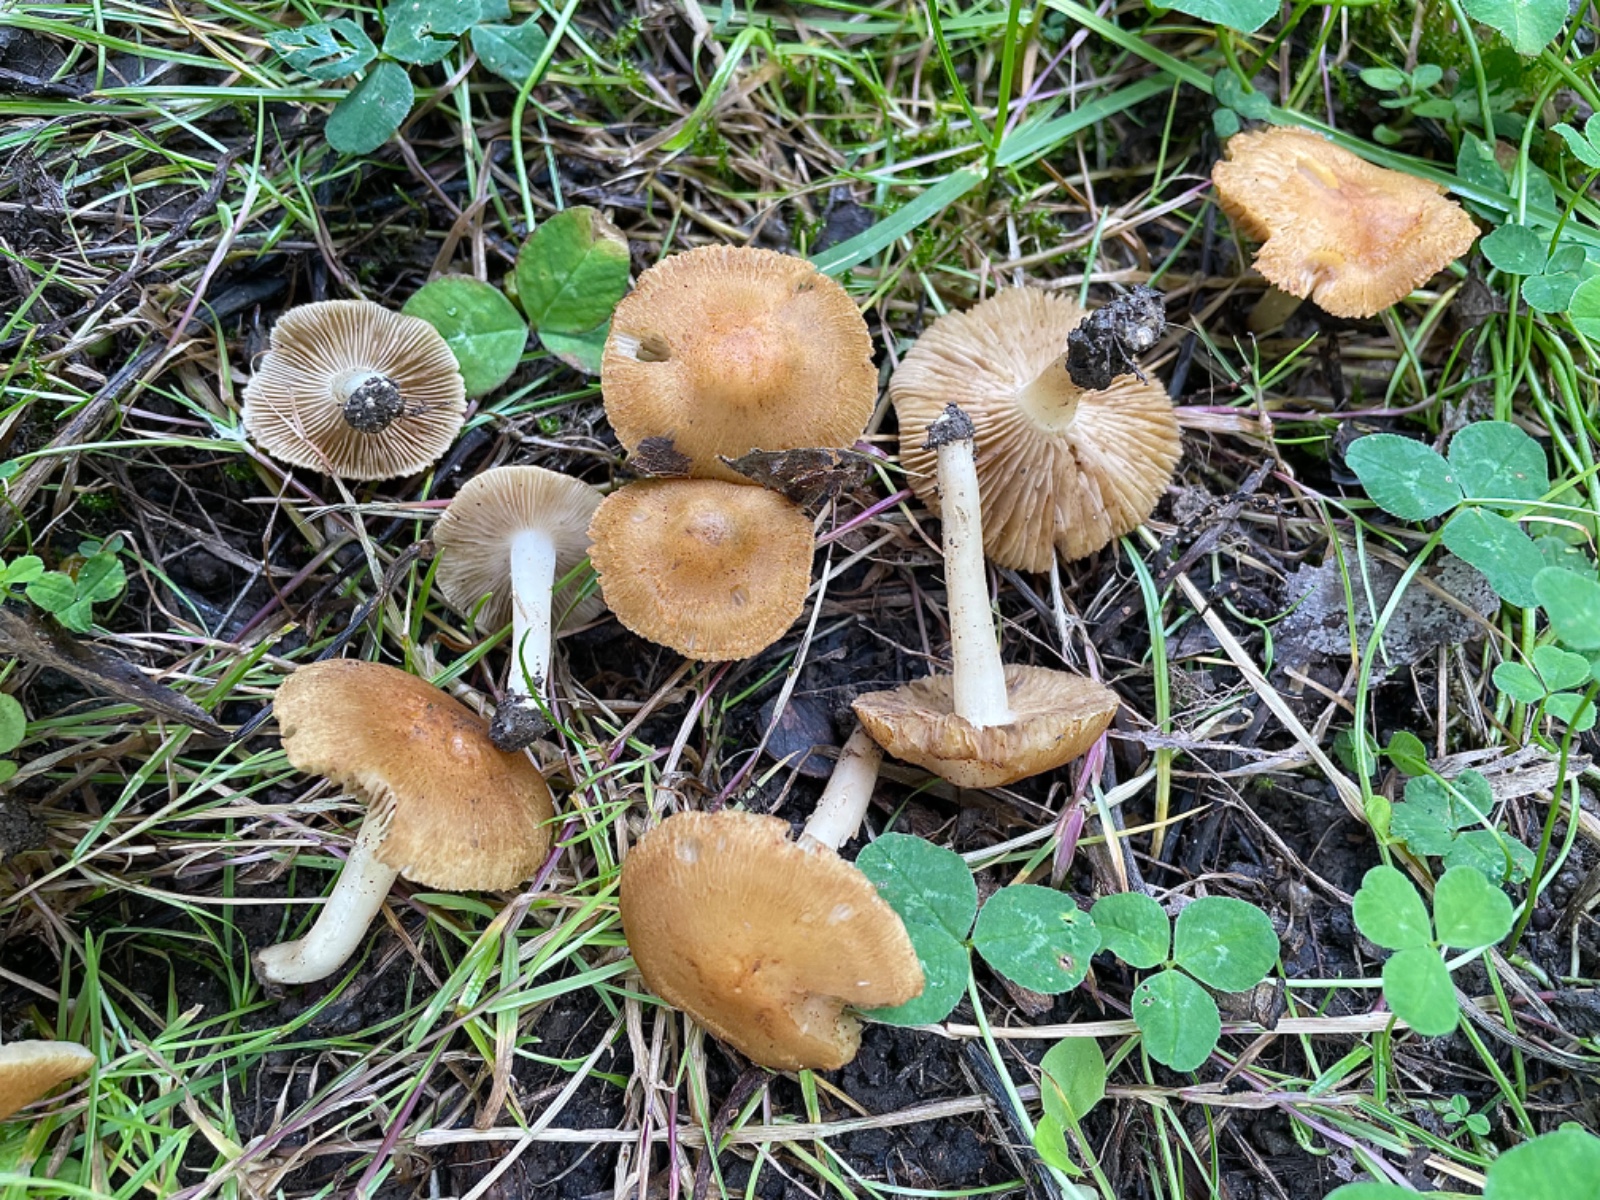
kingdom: Fungi
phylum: Basidiomycota
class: Agaricomycetes
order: Agaricales
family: Inocybaceae
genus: Inocybe
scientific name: Inocybe
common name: trævlhat
